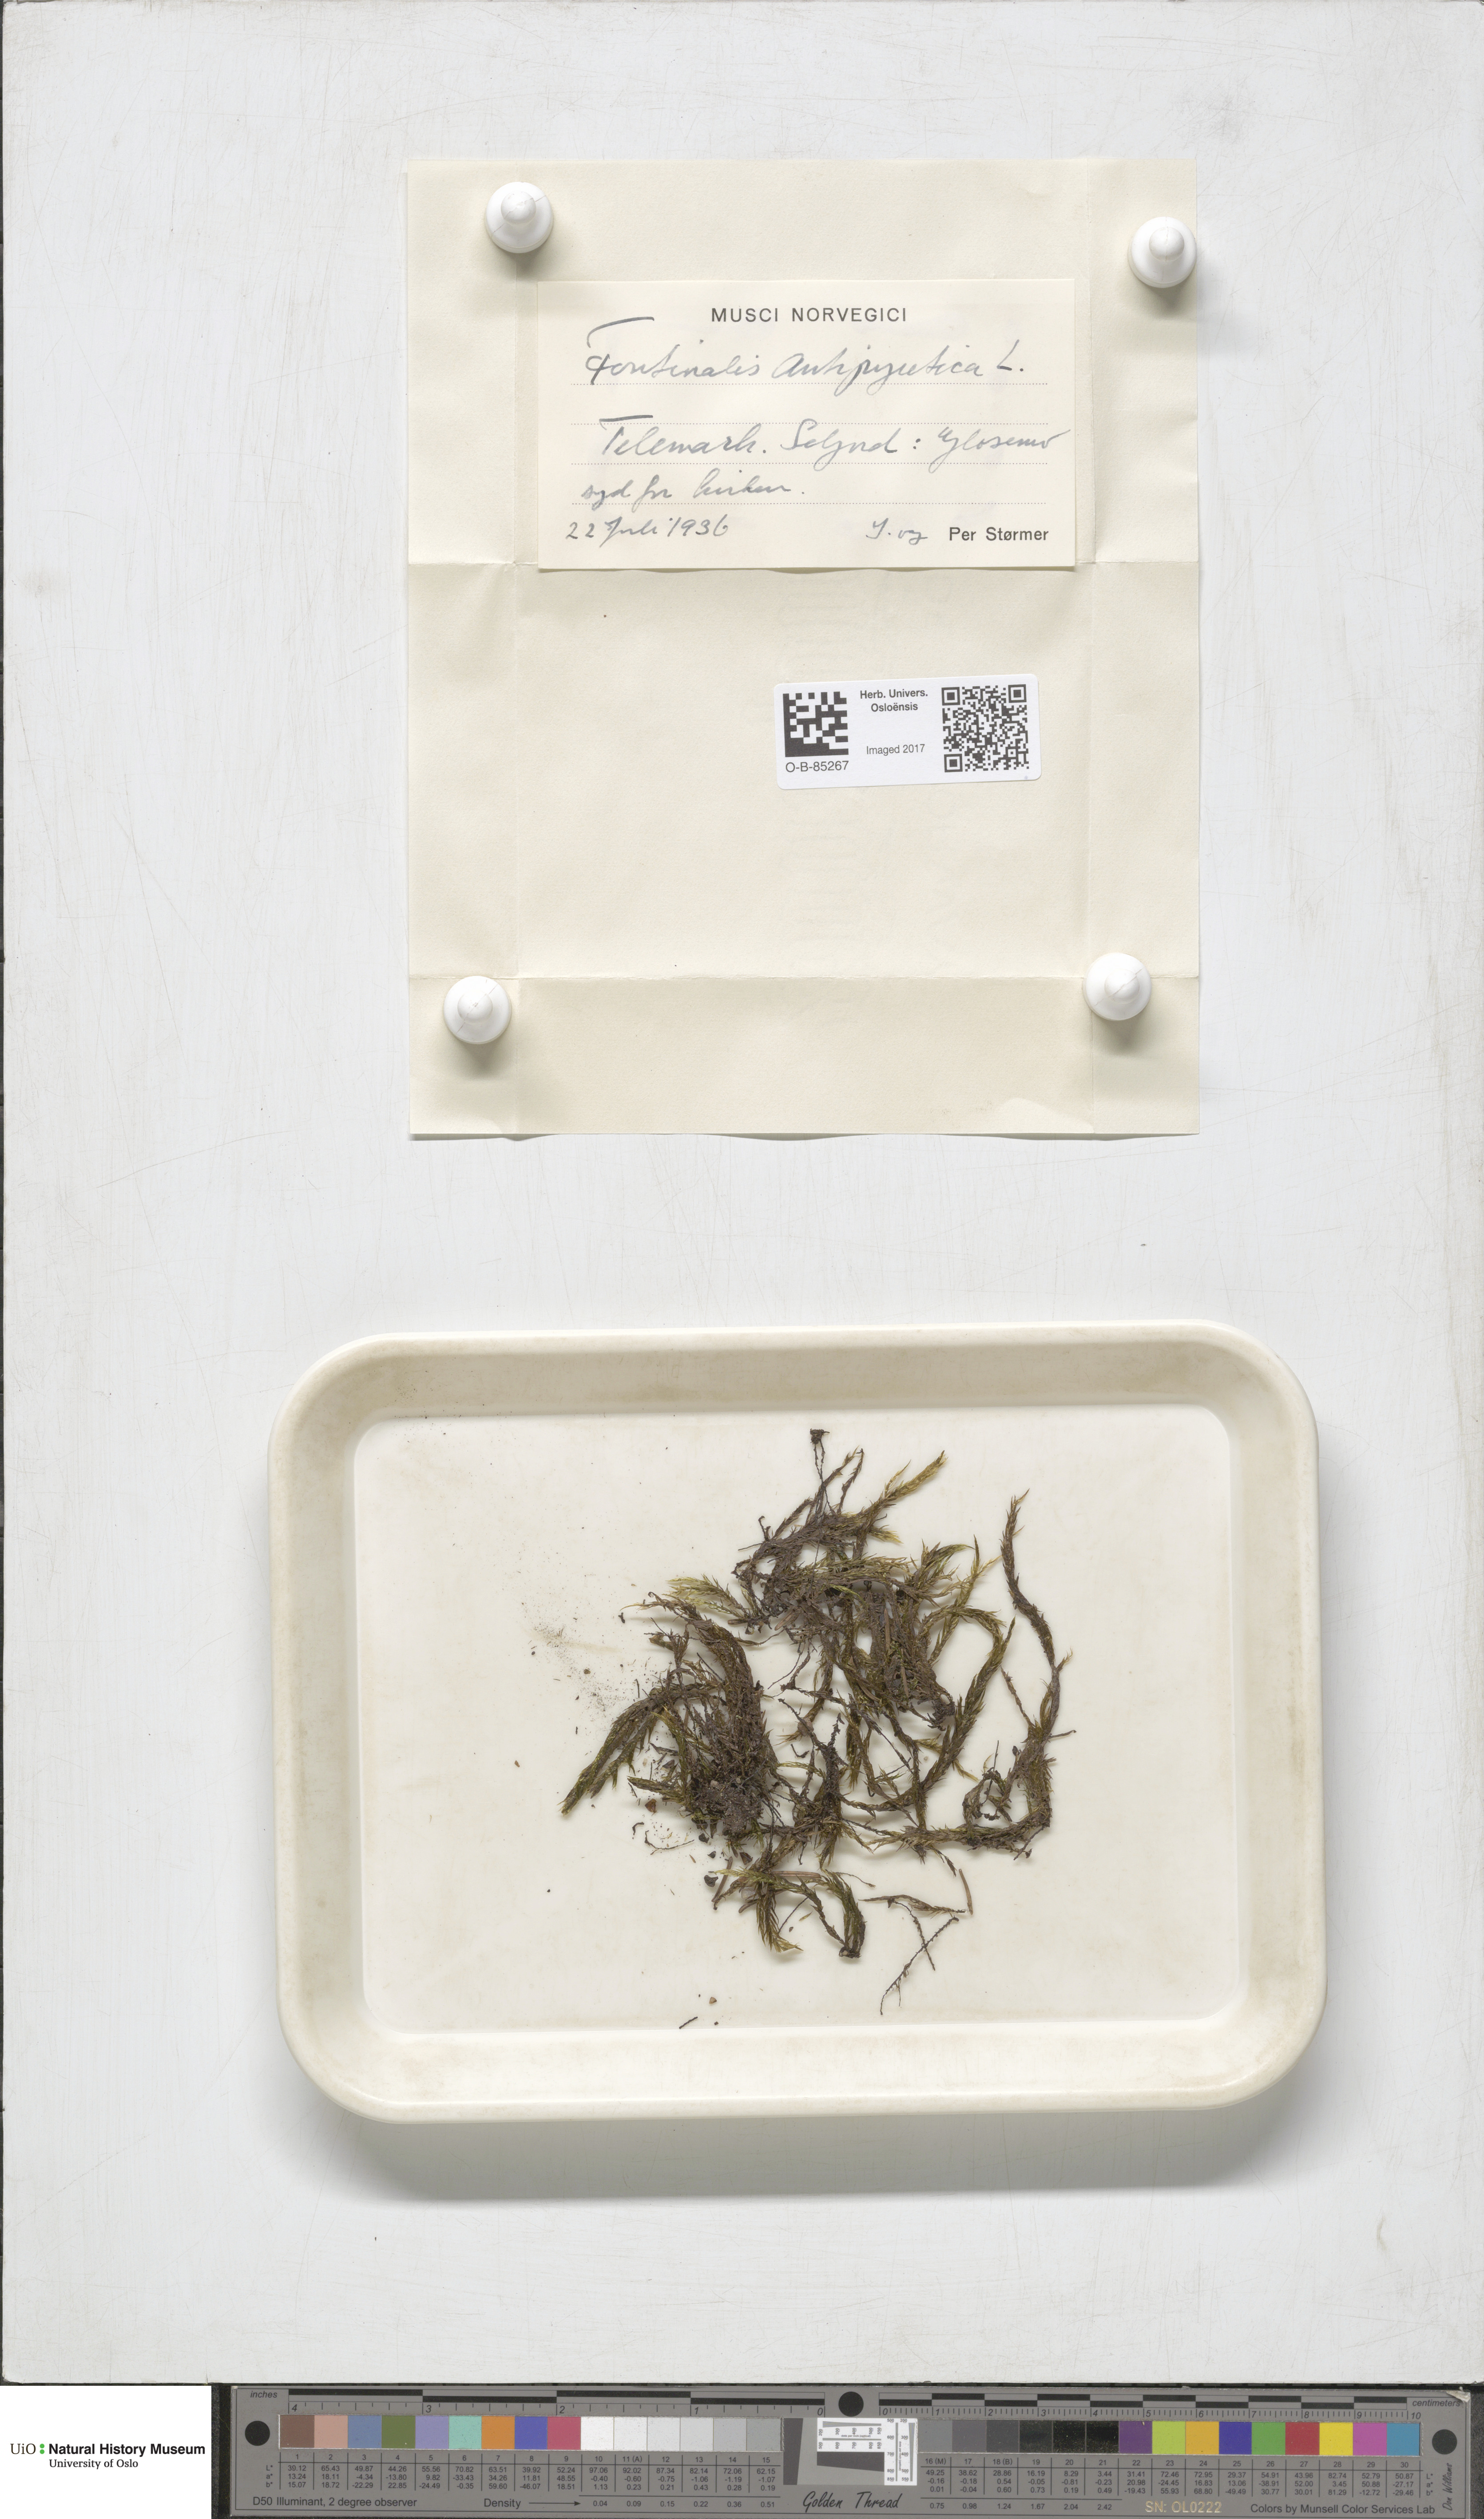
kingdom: Plantae
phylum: Bryophyta
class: Bryopsida
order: Hypnales
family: Fontinalaceae
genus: Fontinalis
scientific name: Fontinalis antipyretica
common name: Greater water-moss
